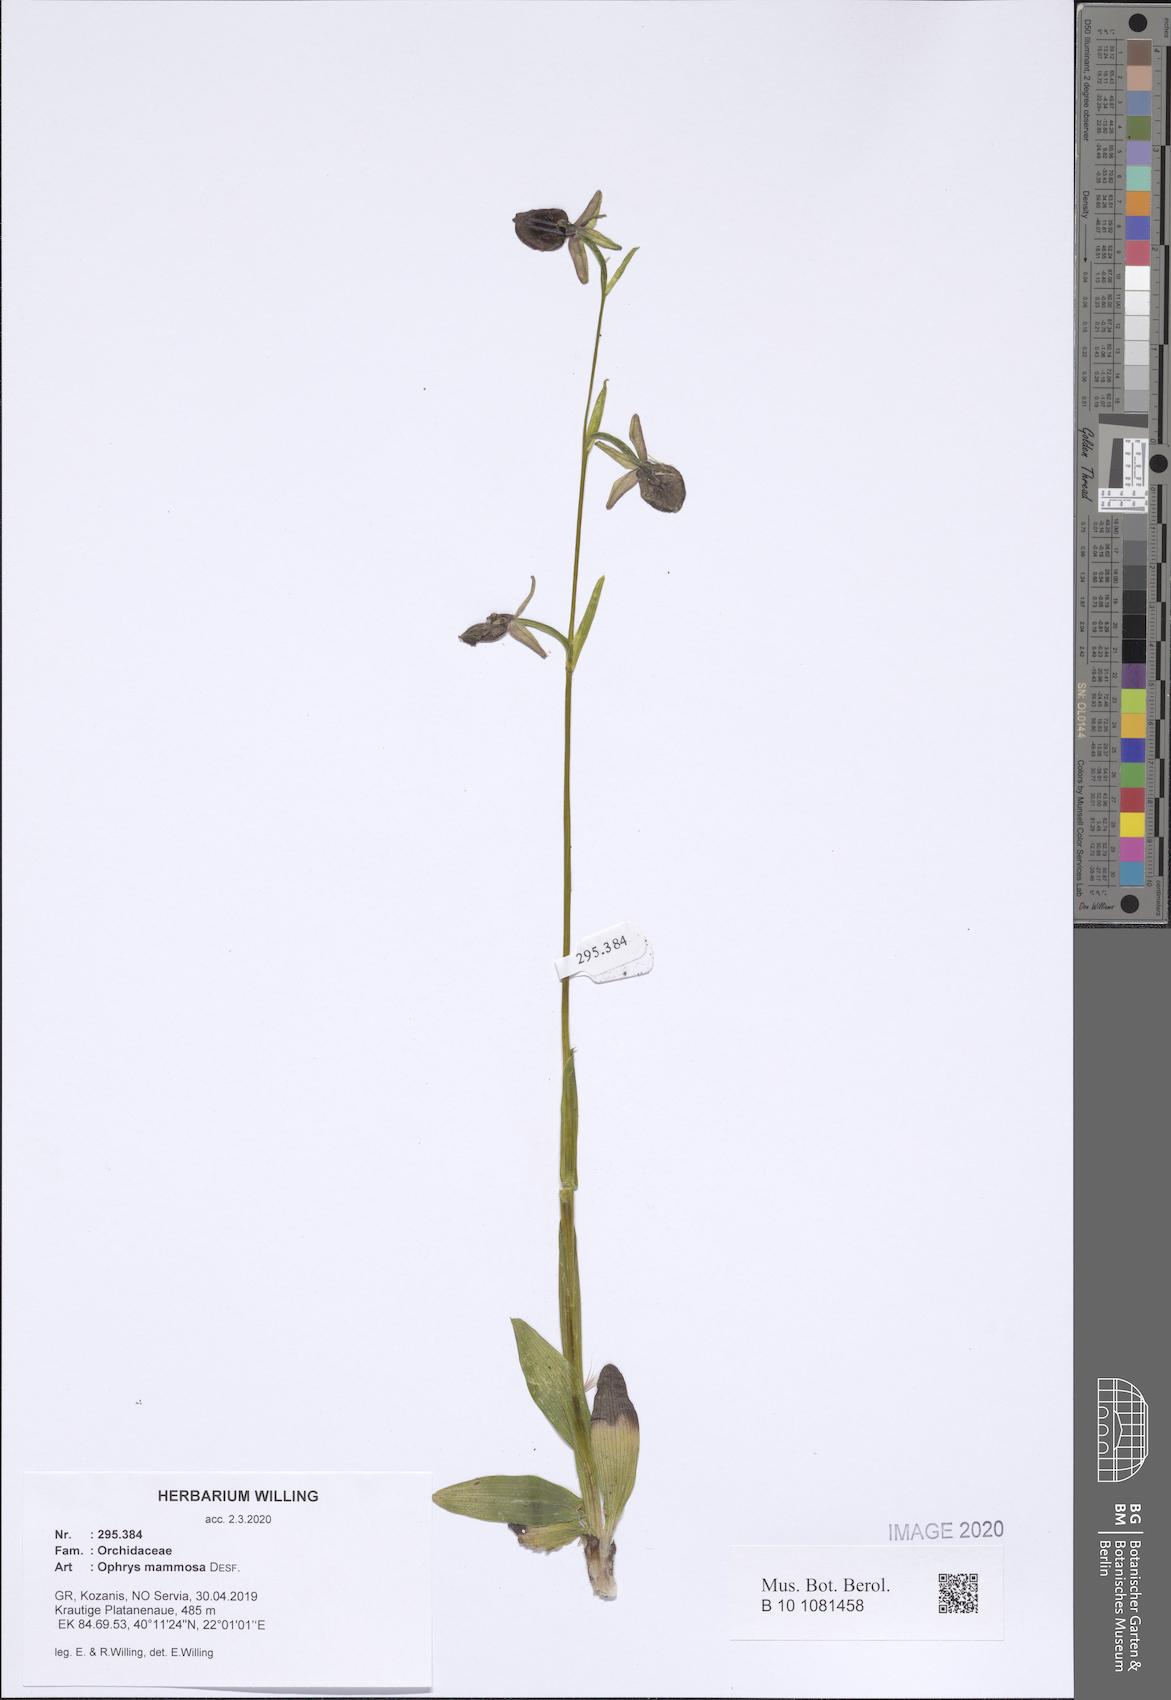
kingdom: Plantae
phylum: Tracheophyta
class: Liliopsida
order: Asparagales
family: Orchidaceae
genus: Ophrys
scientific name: Ophrys sphegodes
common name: Early spider-orchid
